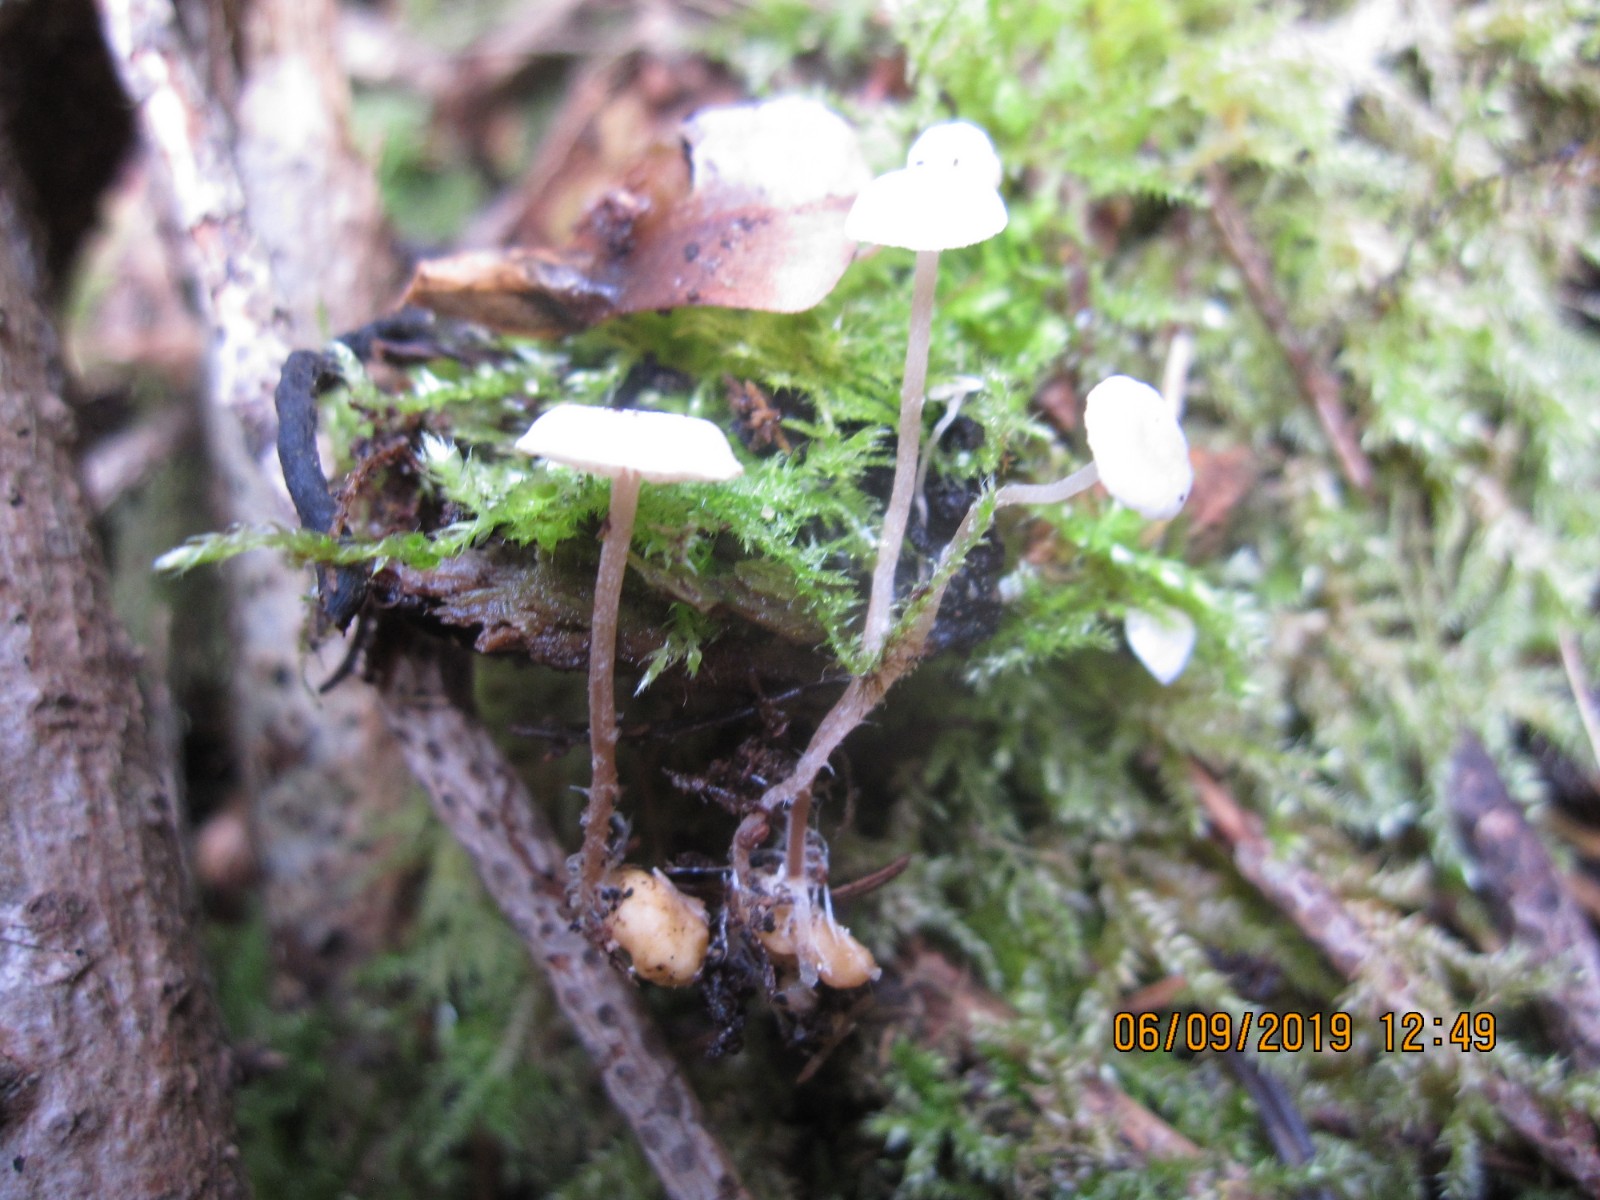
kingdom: Fungi
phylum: Basidiomycota
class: Agaricomycetes
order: Agaricales
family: Tricholomataceae
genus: Collybia
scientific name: Collybia cookei
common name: gulknoldet lighat
